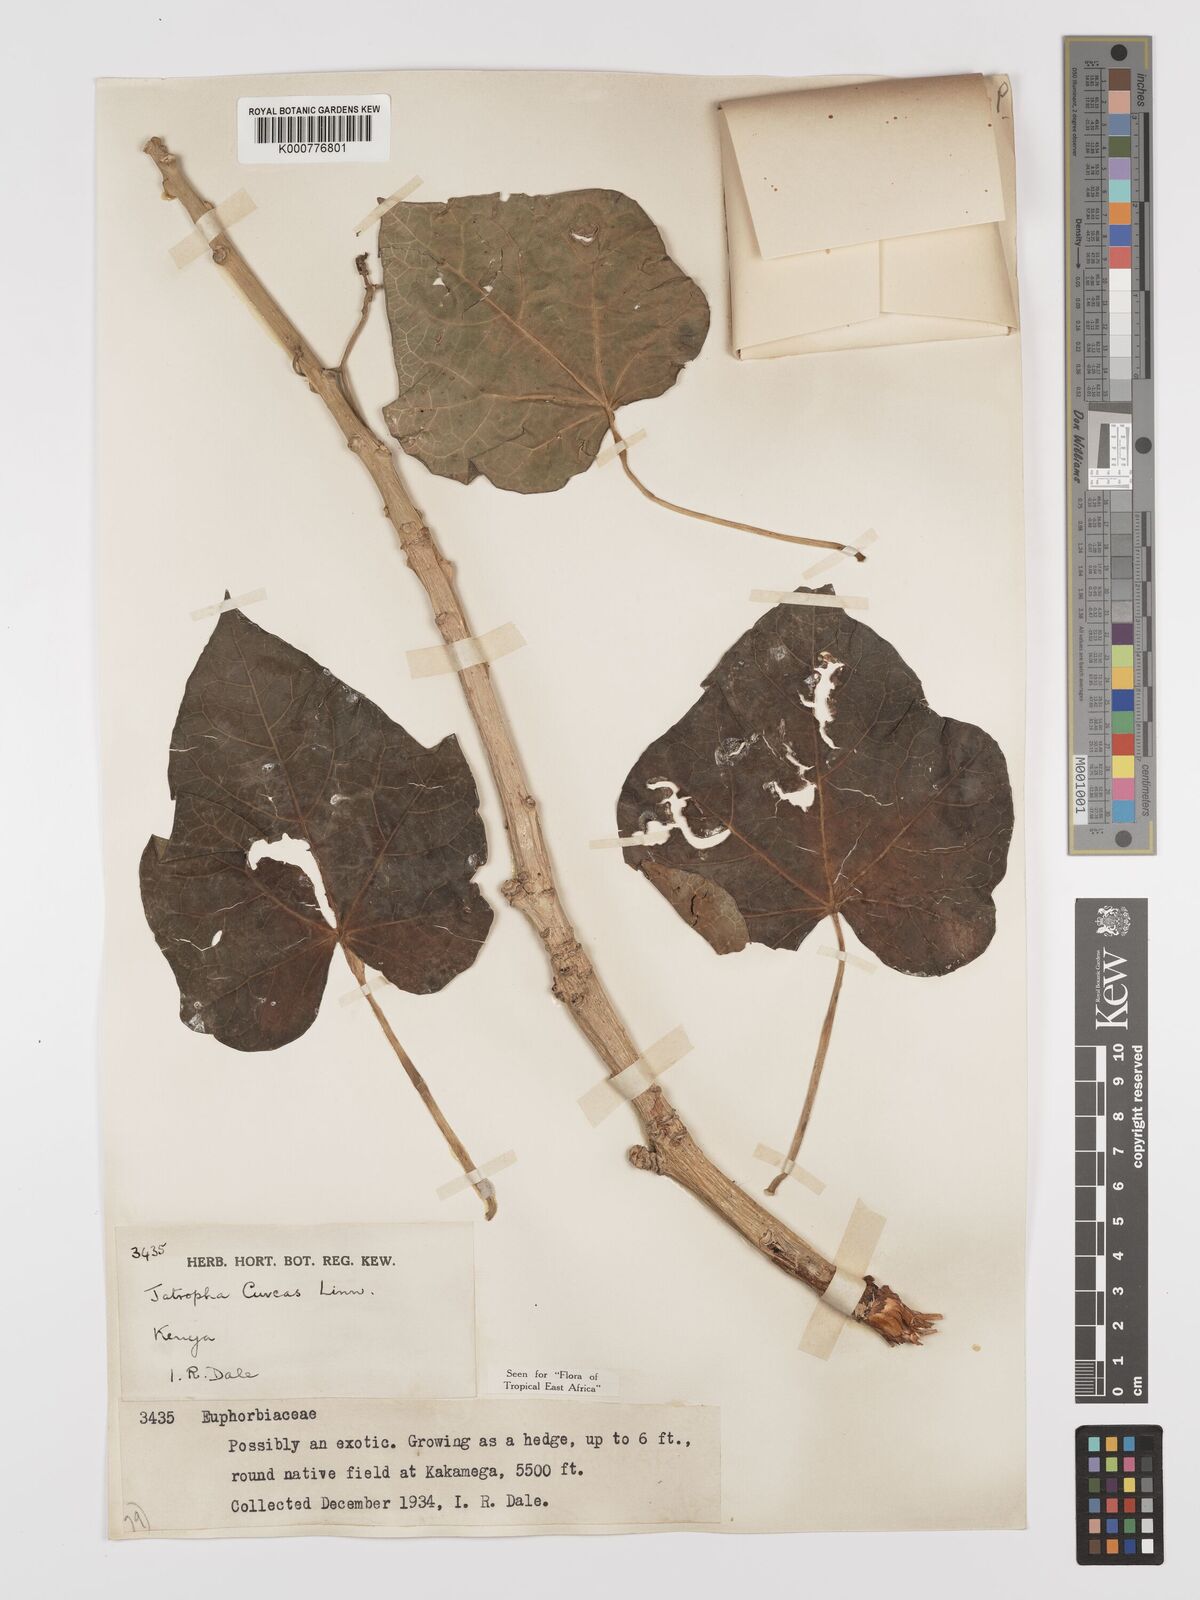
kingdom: Plantae
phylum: Tracheophyta
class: Magnoliopsida
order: Malpighiales
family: Euphorbiaceae
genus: Jatropha
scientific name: Jatropha curcas
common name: Barbados nut
